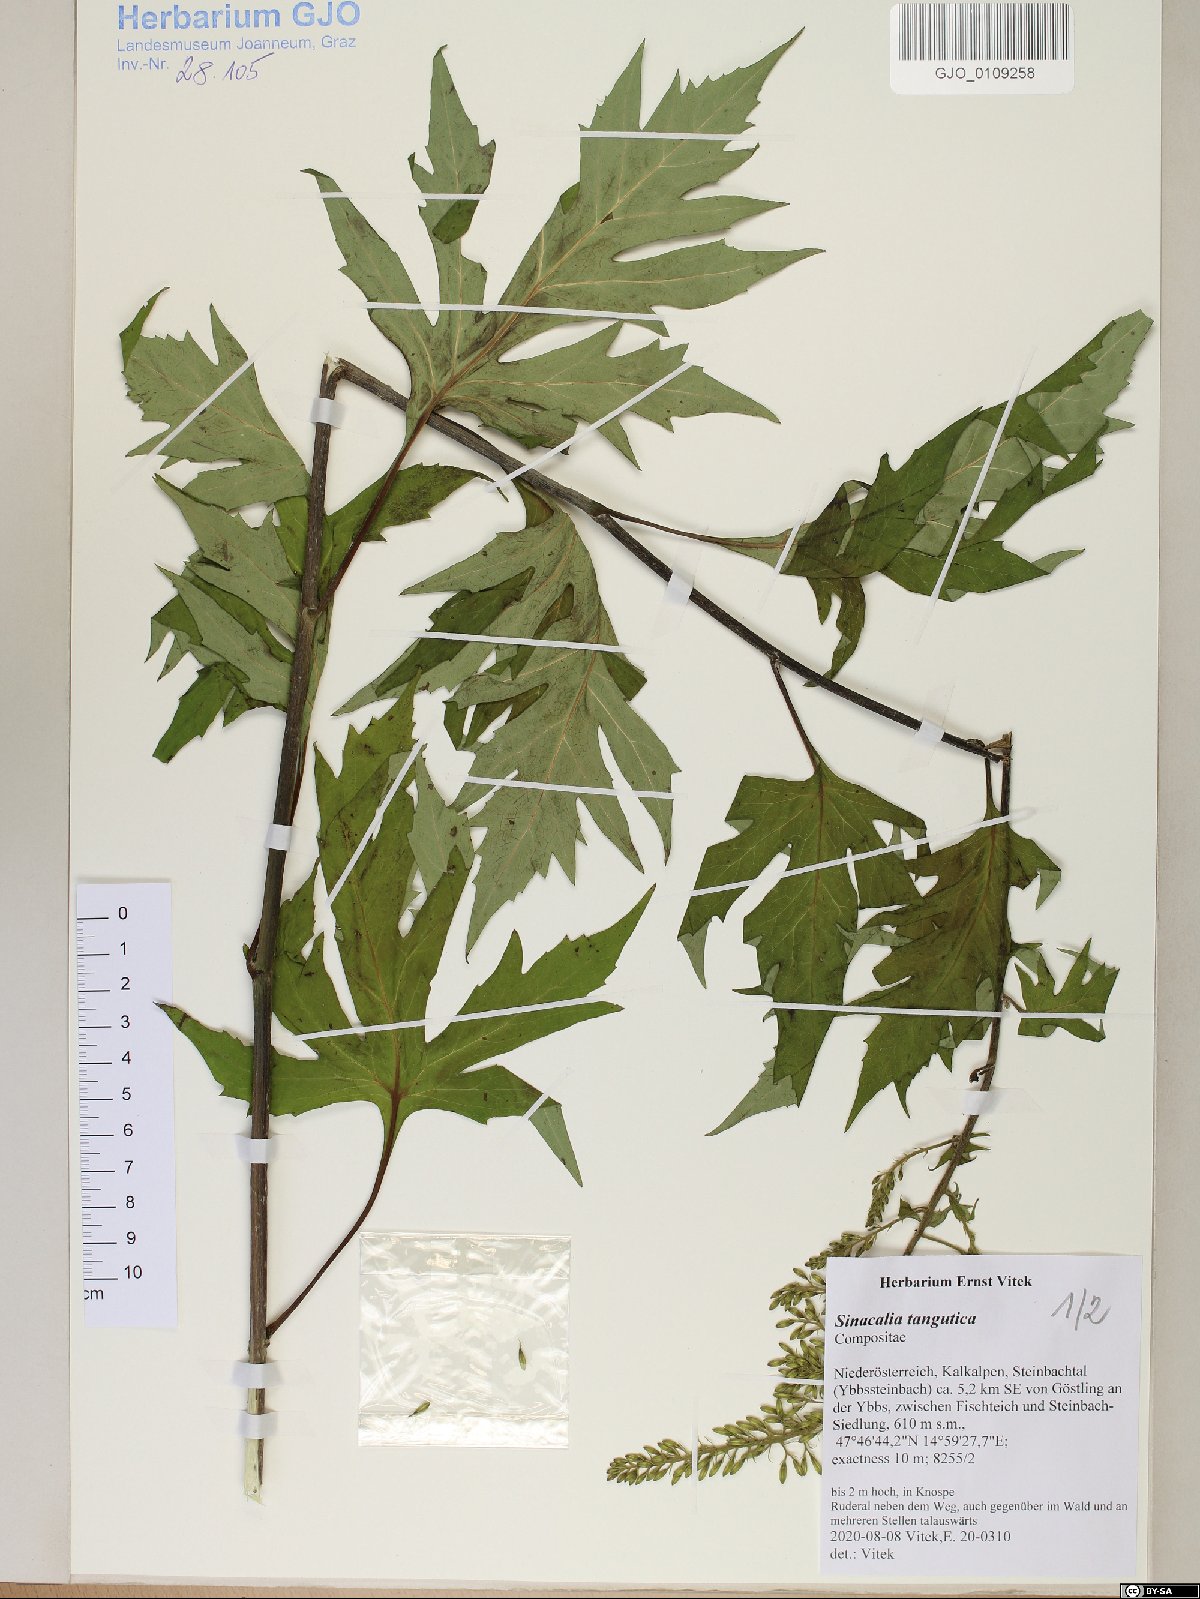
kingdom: Plantae
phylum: Tracheophyta
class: Magnoliopsida
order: Asterales
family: Asteraceae
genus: Sinacalia
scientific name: Sinacalia tangutica
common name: Chinese ragwort
